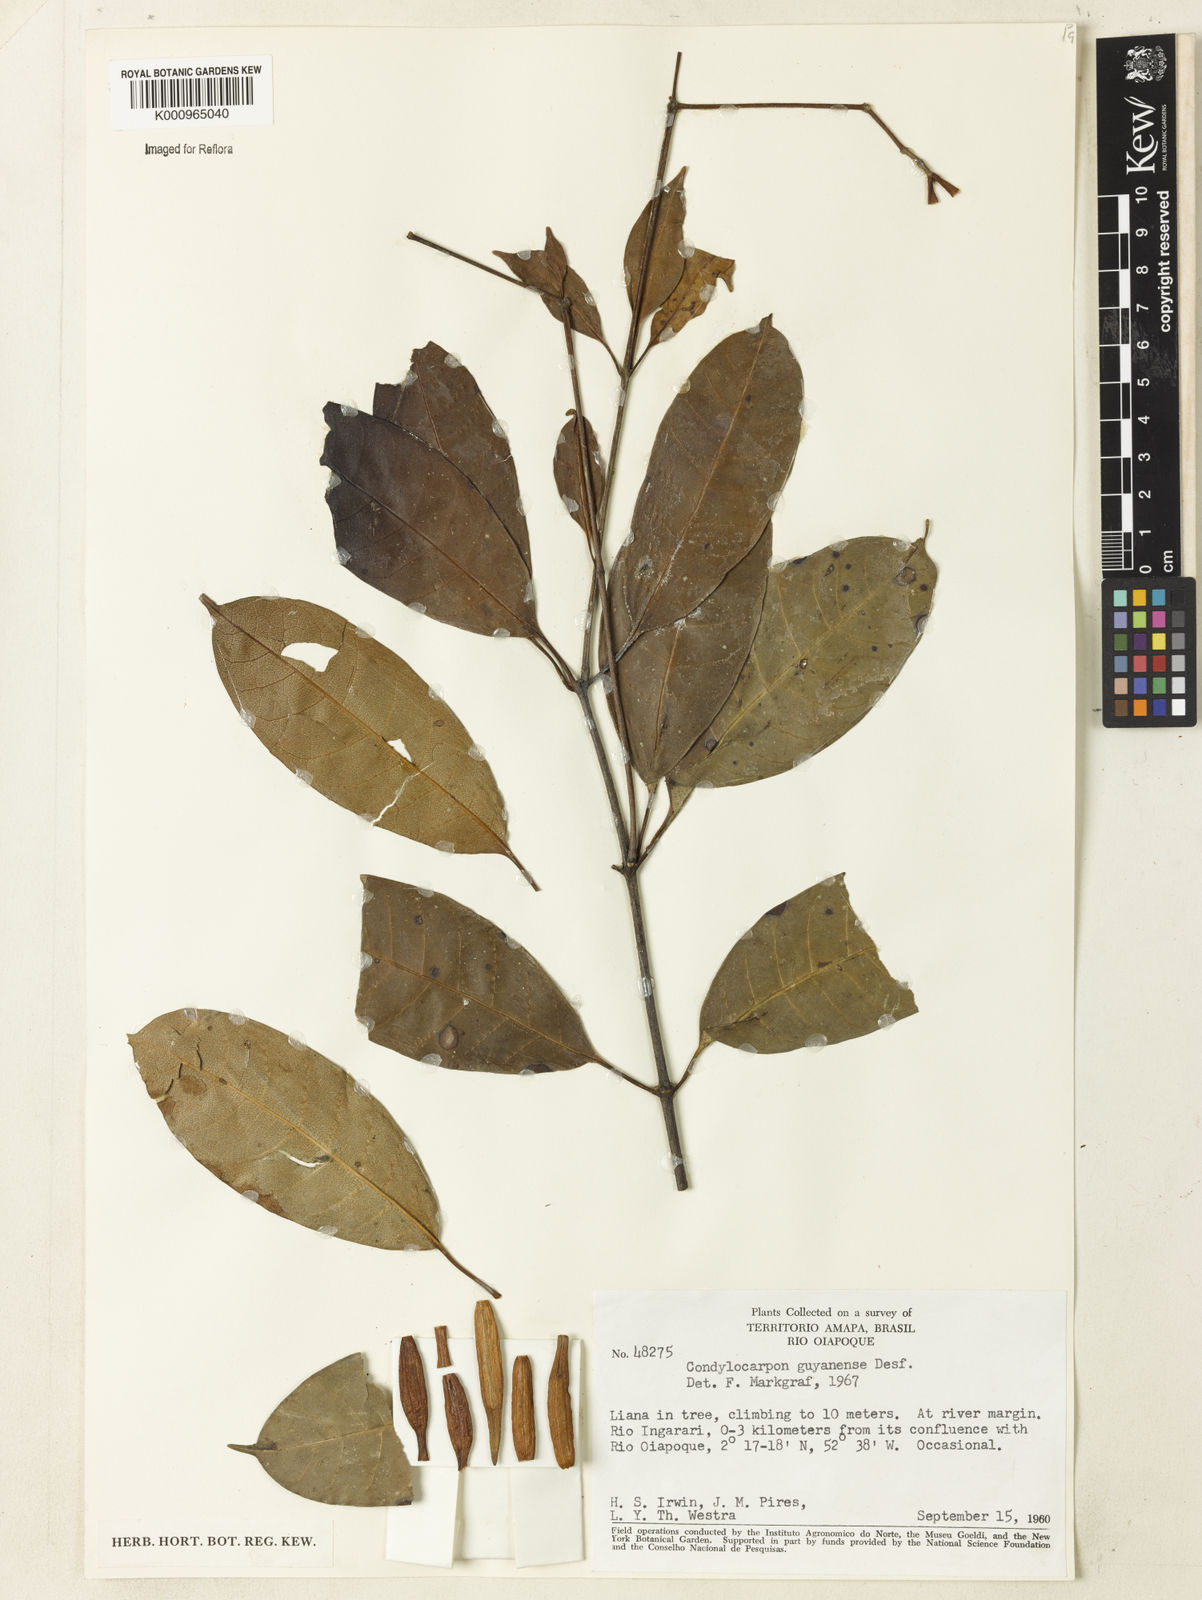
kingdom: Plantae
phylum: Tracheophyta
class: Magnoliopsida
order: Gentianales
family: Apocynaceae
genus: Condylocarpon
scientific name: Condylocarpon guyanense
